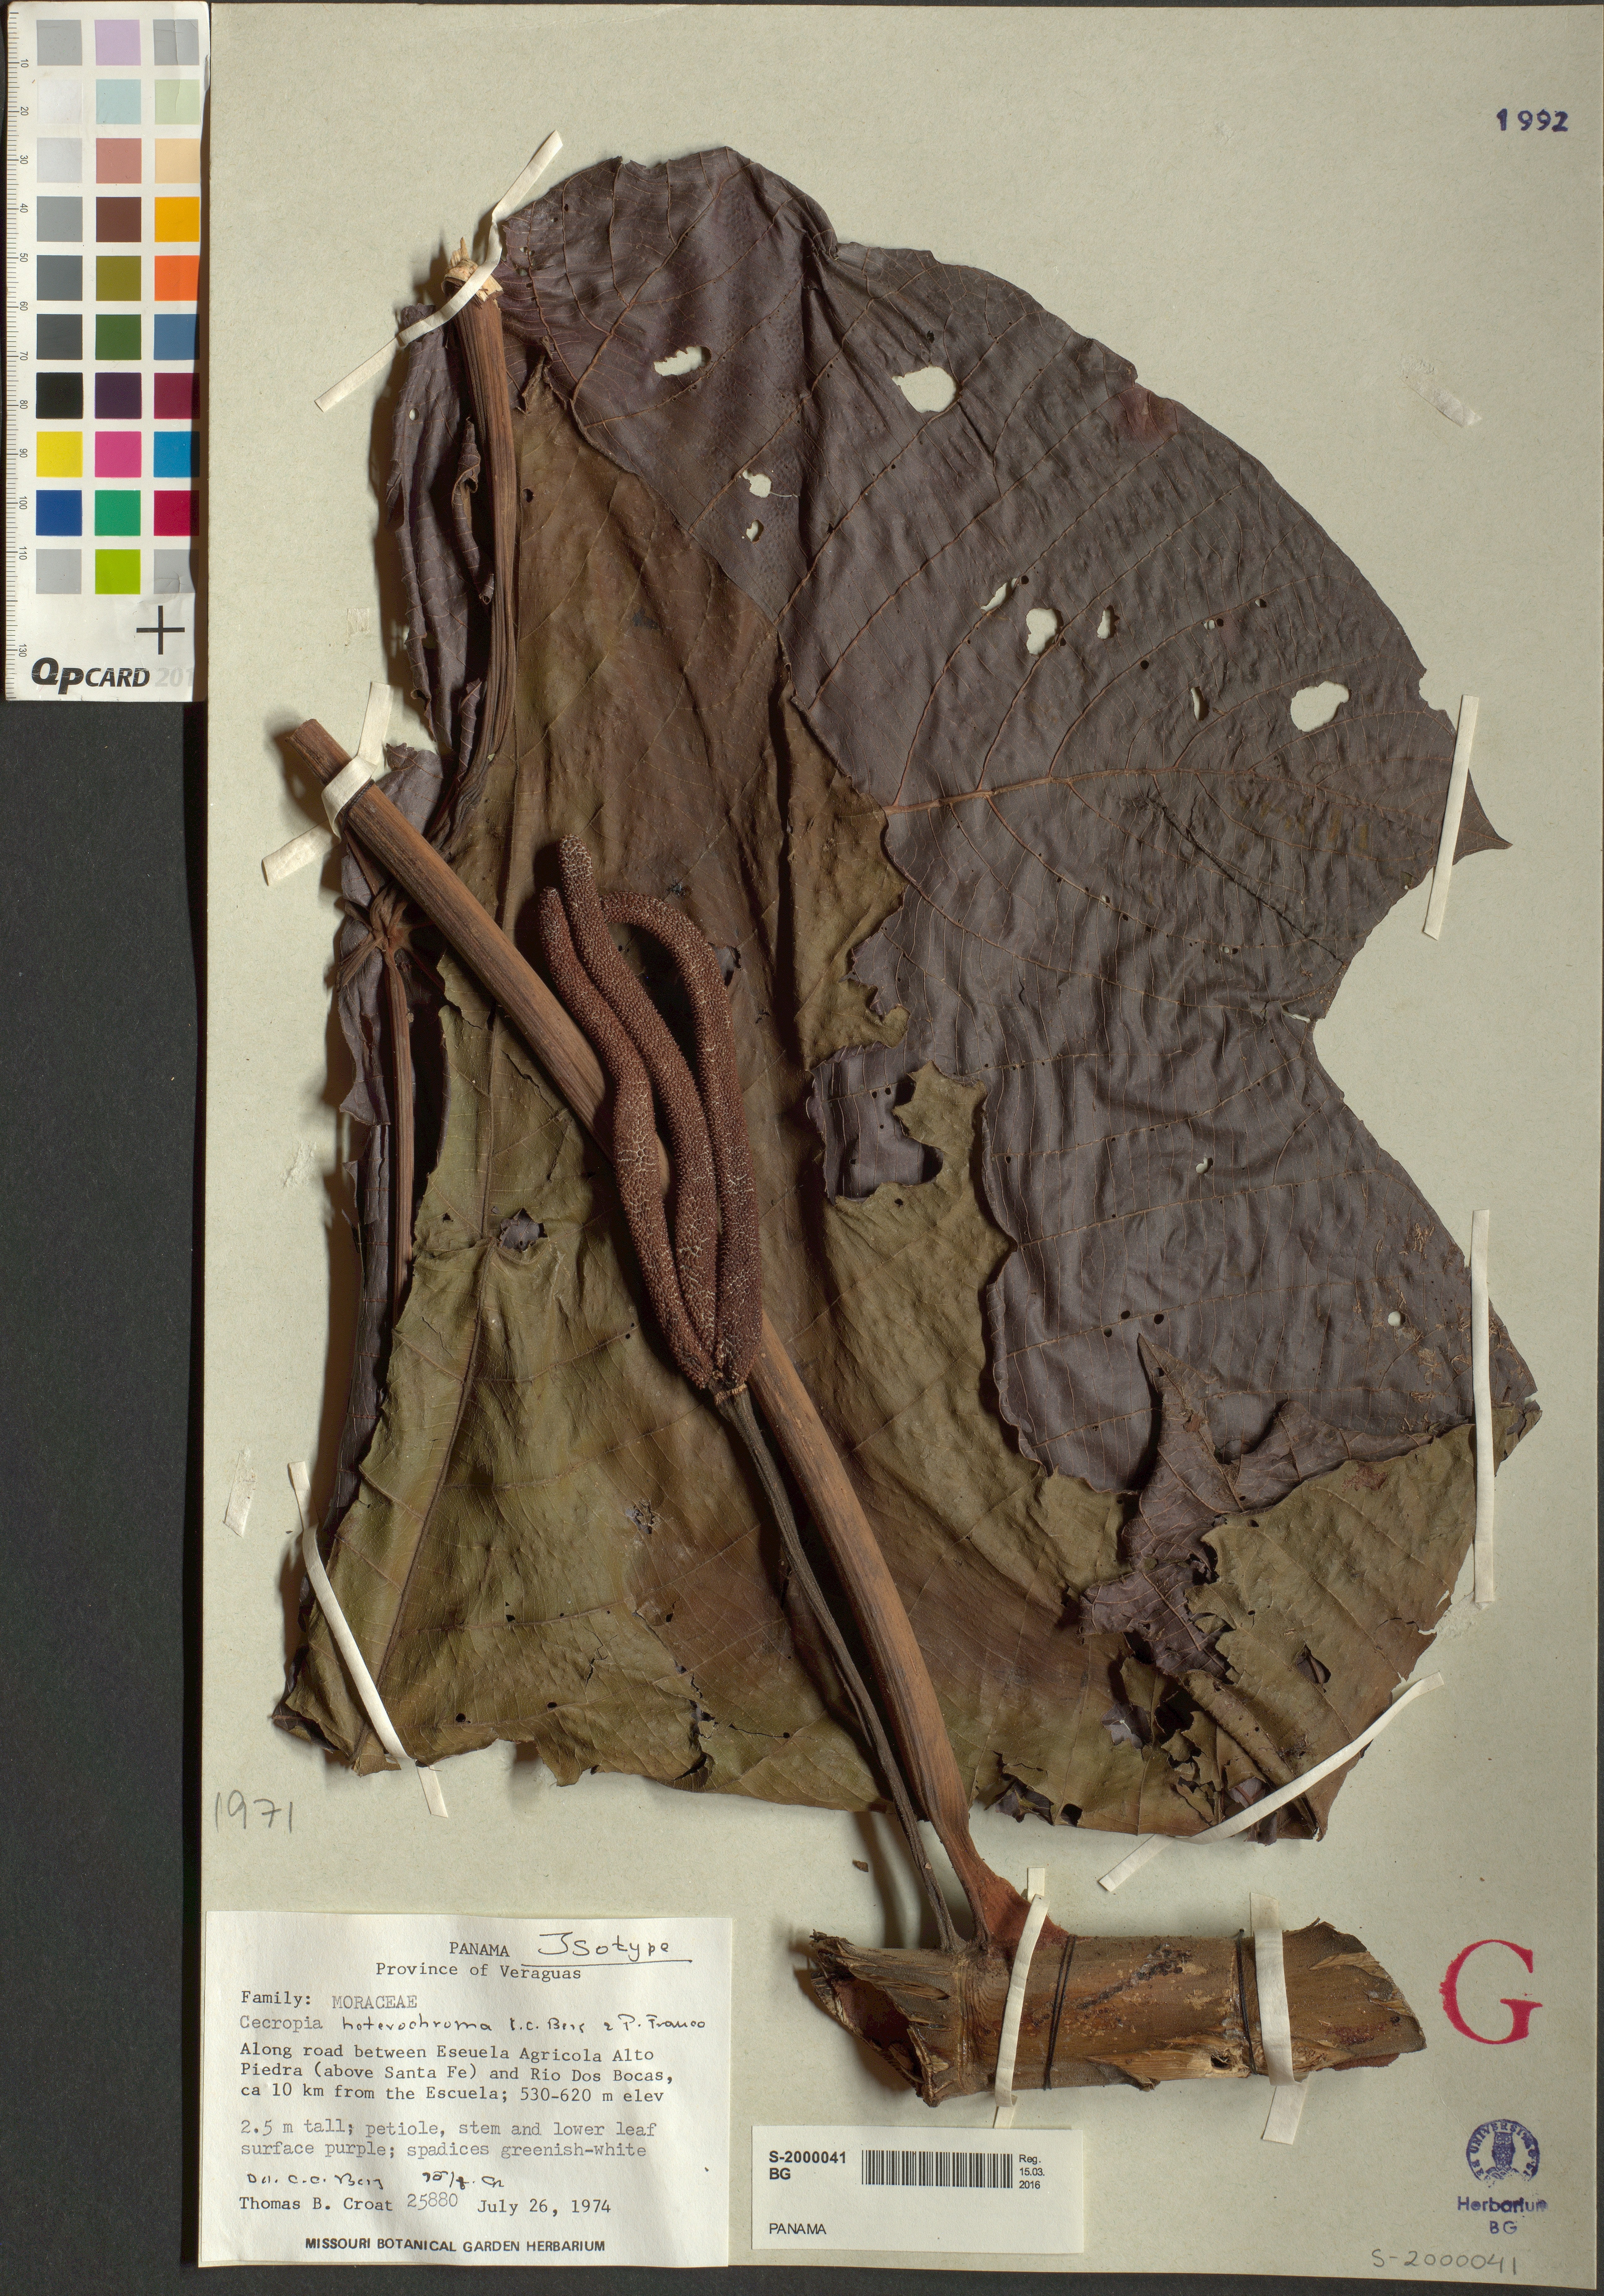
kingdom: Plantae
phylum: Tracheophyta
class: Magnoliopsida
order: Rosales
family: Urticaceae
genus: Cecropia
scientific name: Cecropia heterochroma
